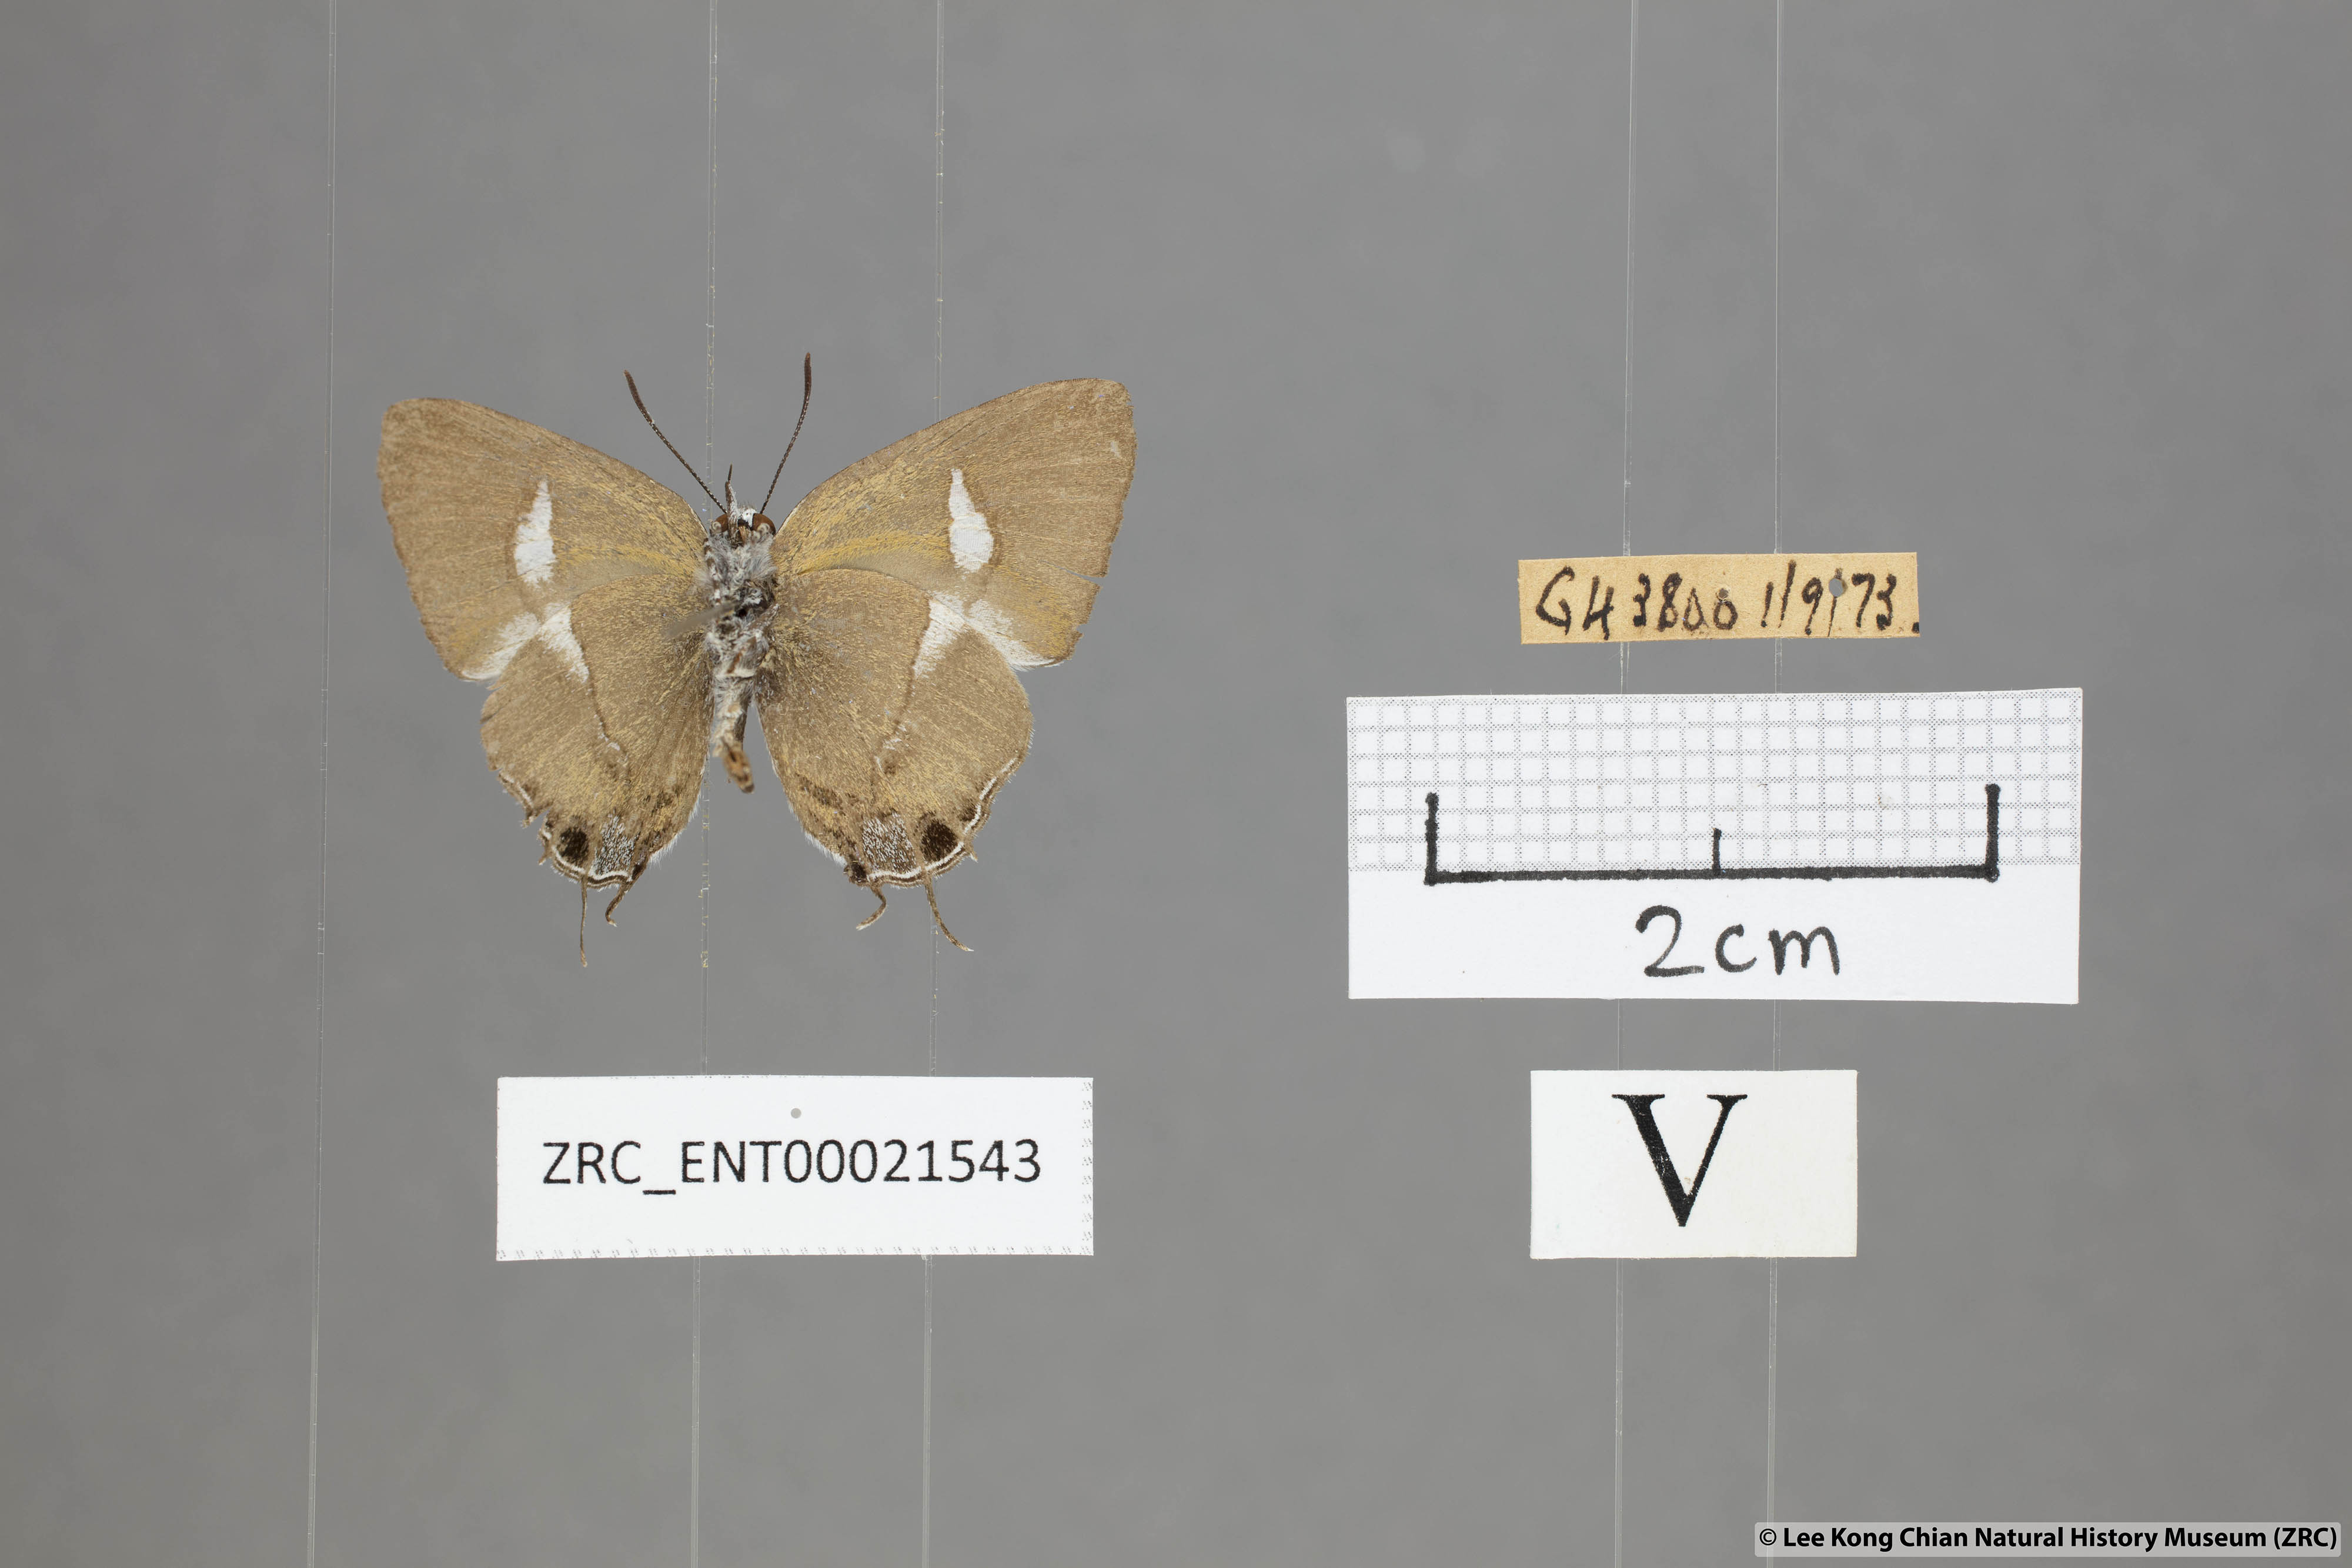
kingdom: Animalia
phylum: Arthropoda
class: Insecta
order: Lepidoptera
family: Lycaenidae
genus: Horaga
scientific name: Horaga syrinx
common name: Ambon onyx
